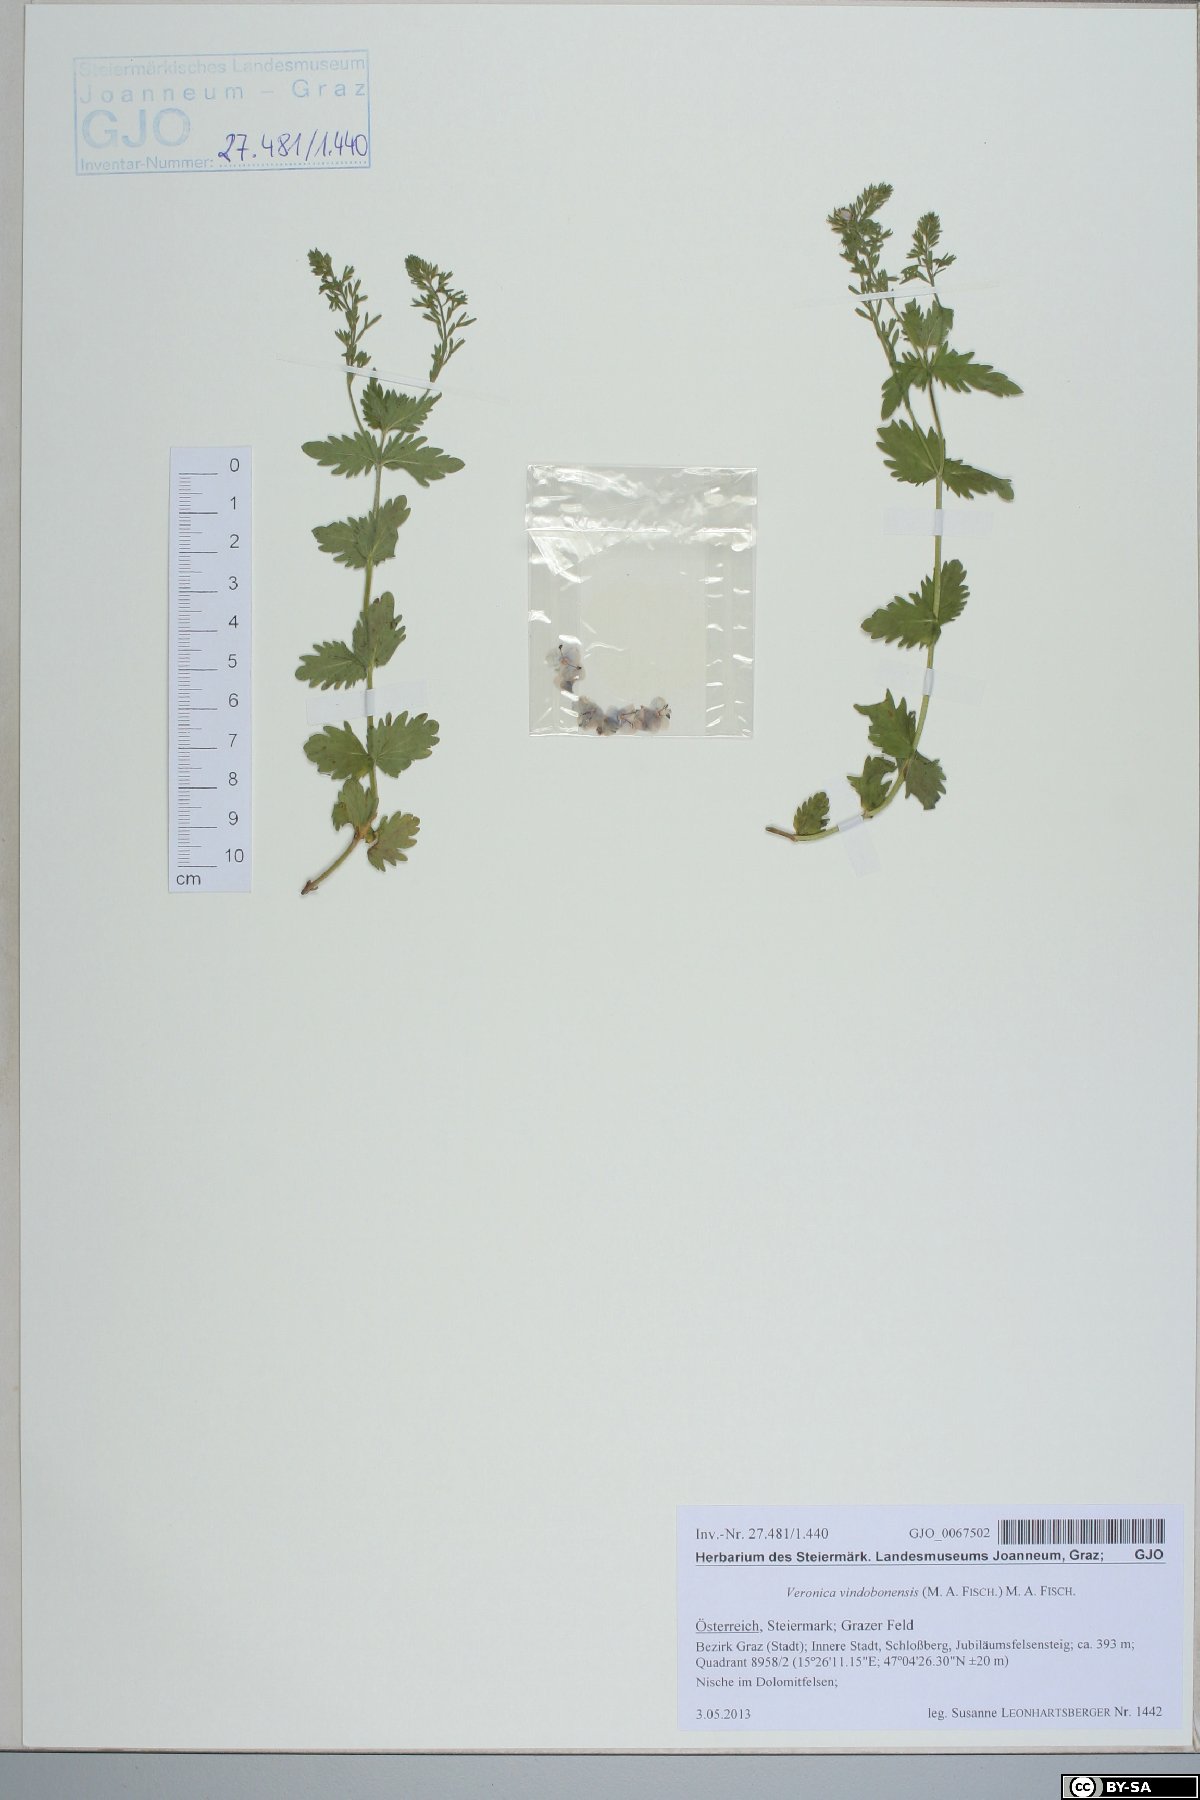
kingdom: Plantae
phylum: Tracheophyta
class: Magnoliopsida
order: Lamiales
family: Plantaginaceae
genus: Veronica
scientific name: Veronica vindobonensis
